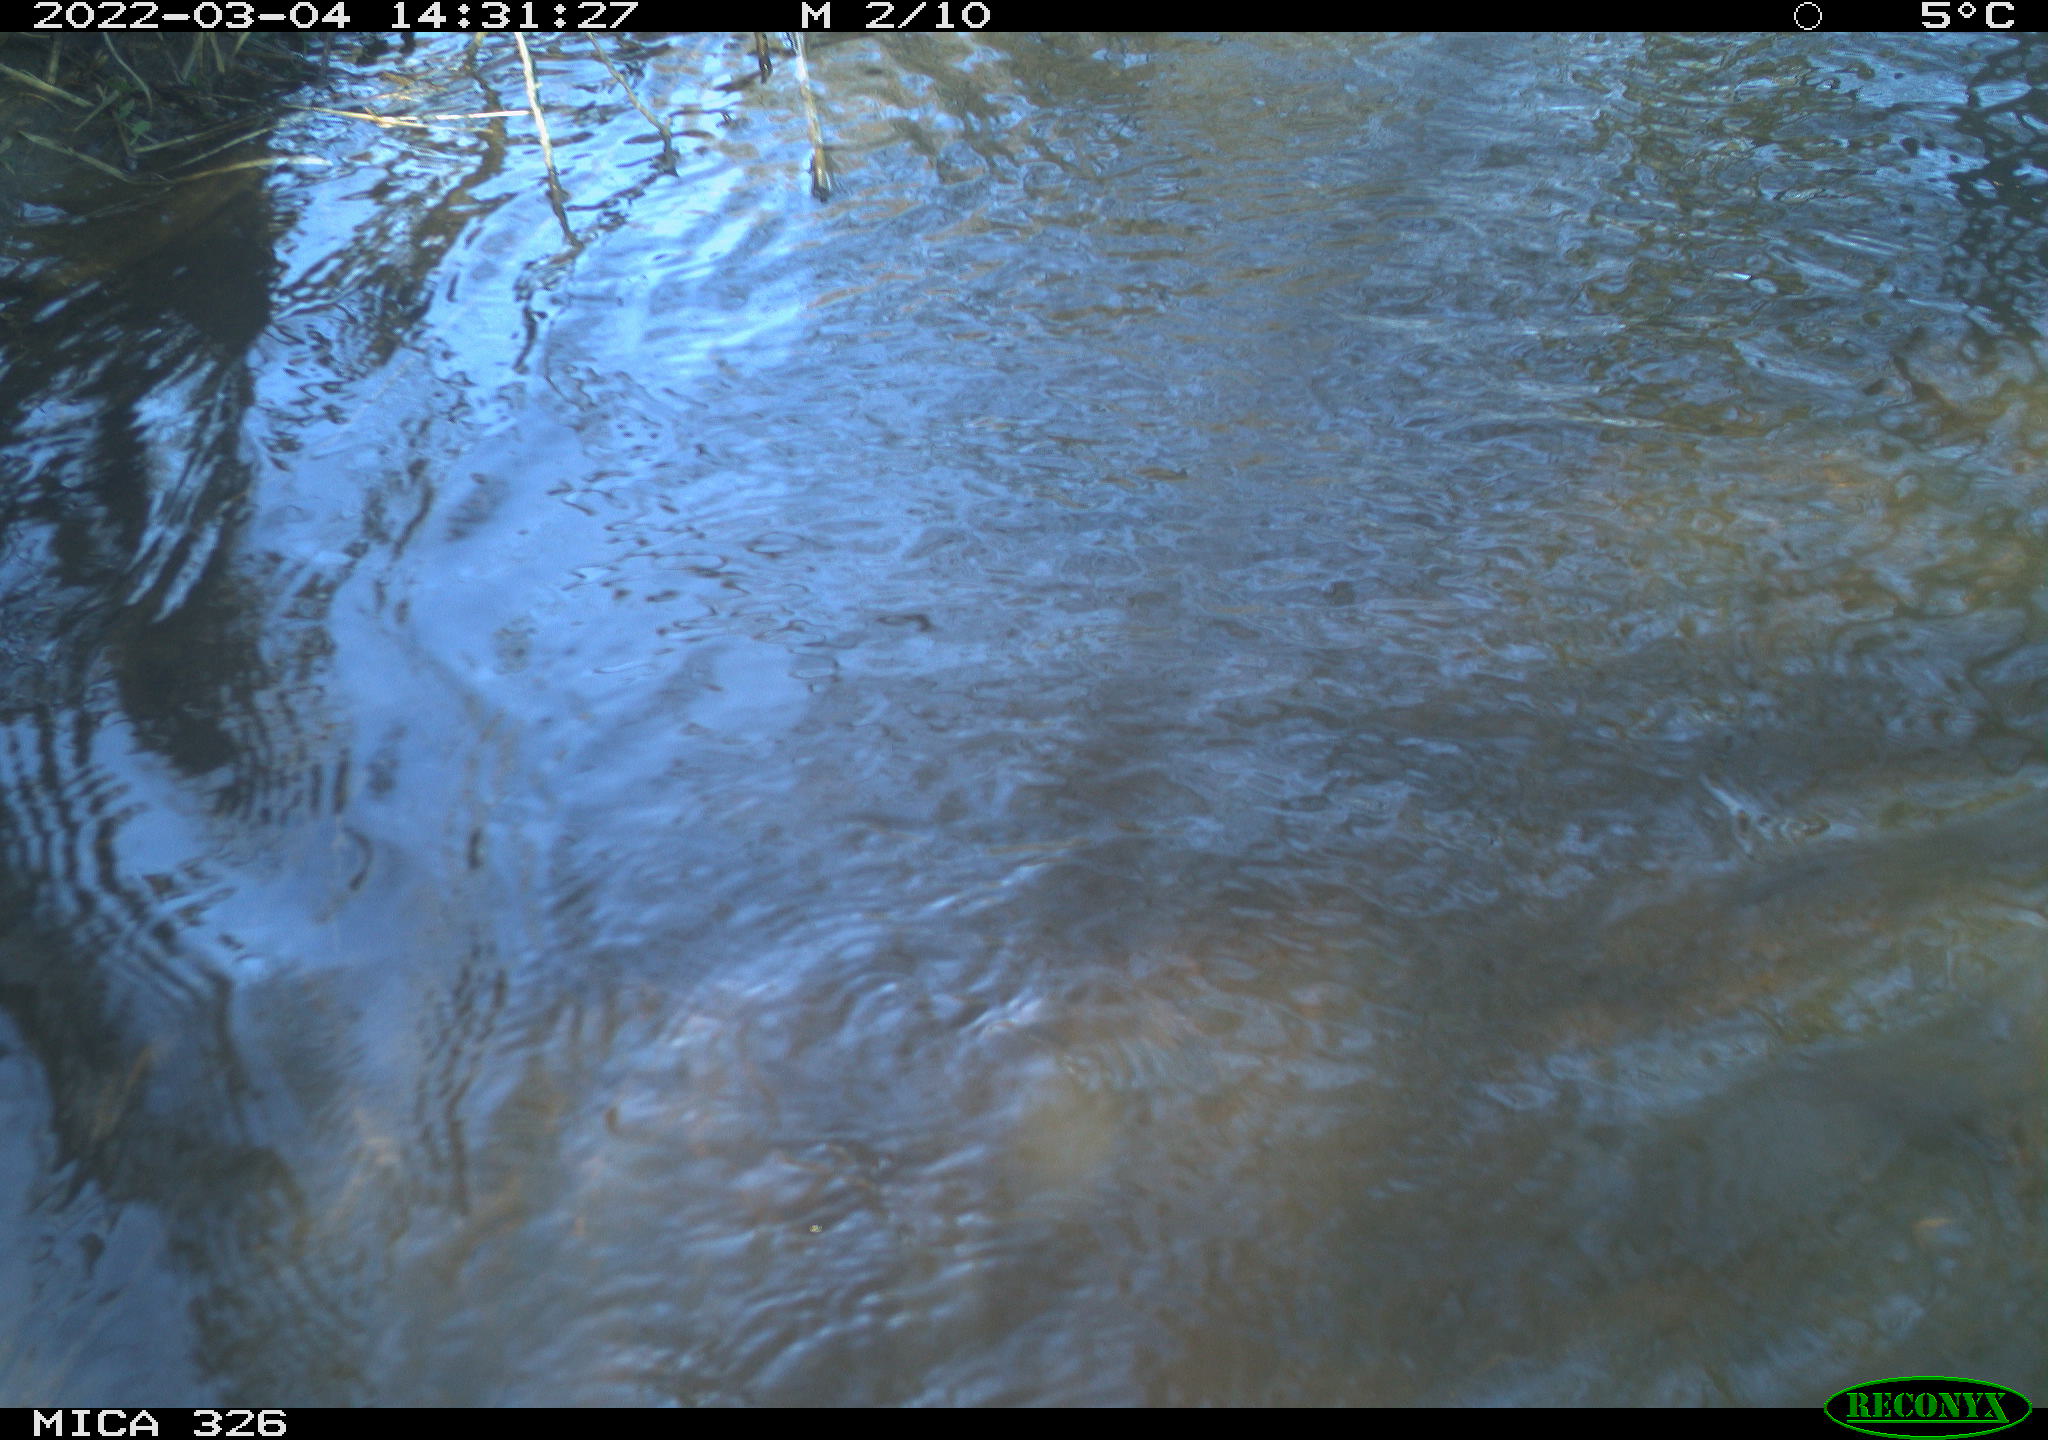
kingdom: Animalia
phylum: Chordata
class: Mammalia
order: Rodentia
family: Cricetidae
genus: Ondatra
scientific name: Ondatra zibethicus
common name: Muskrat
